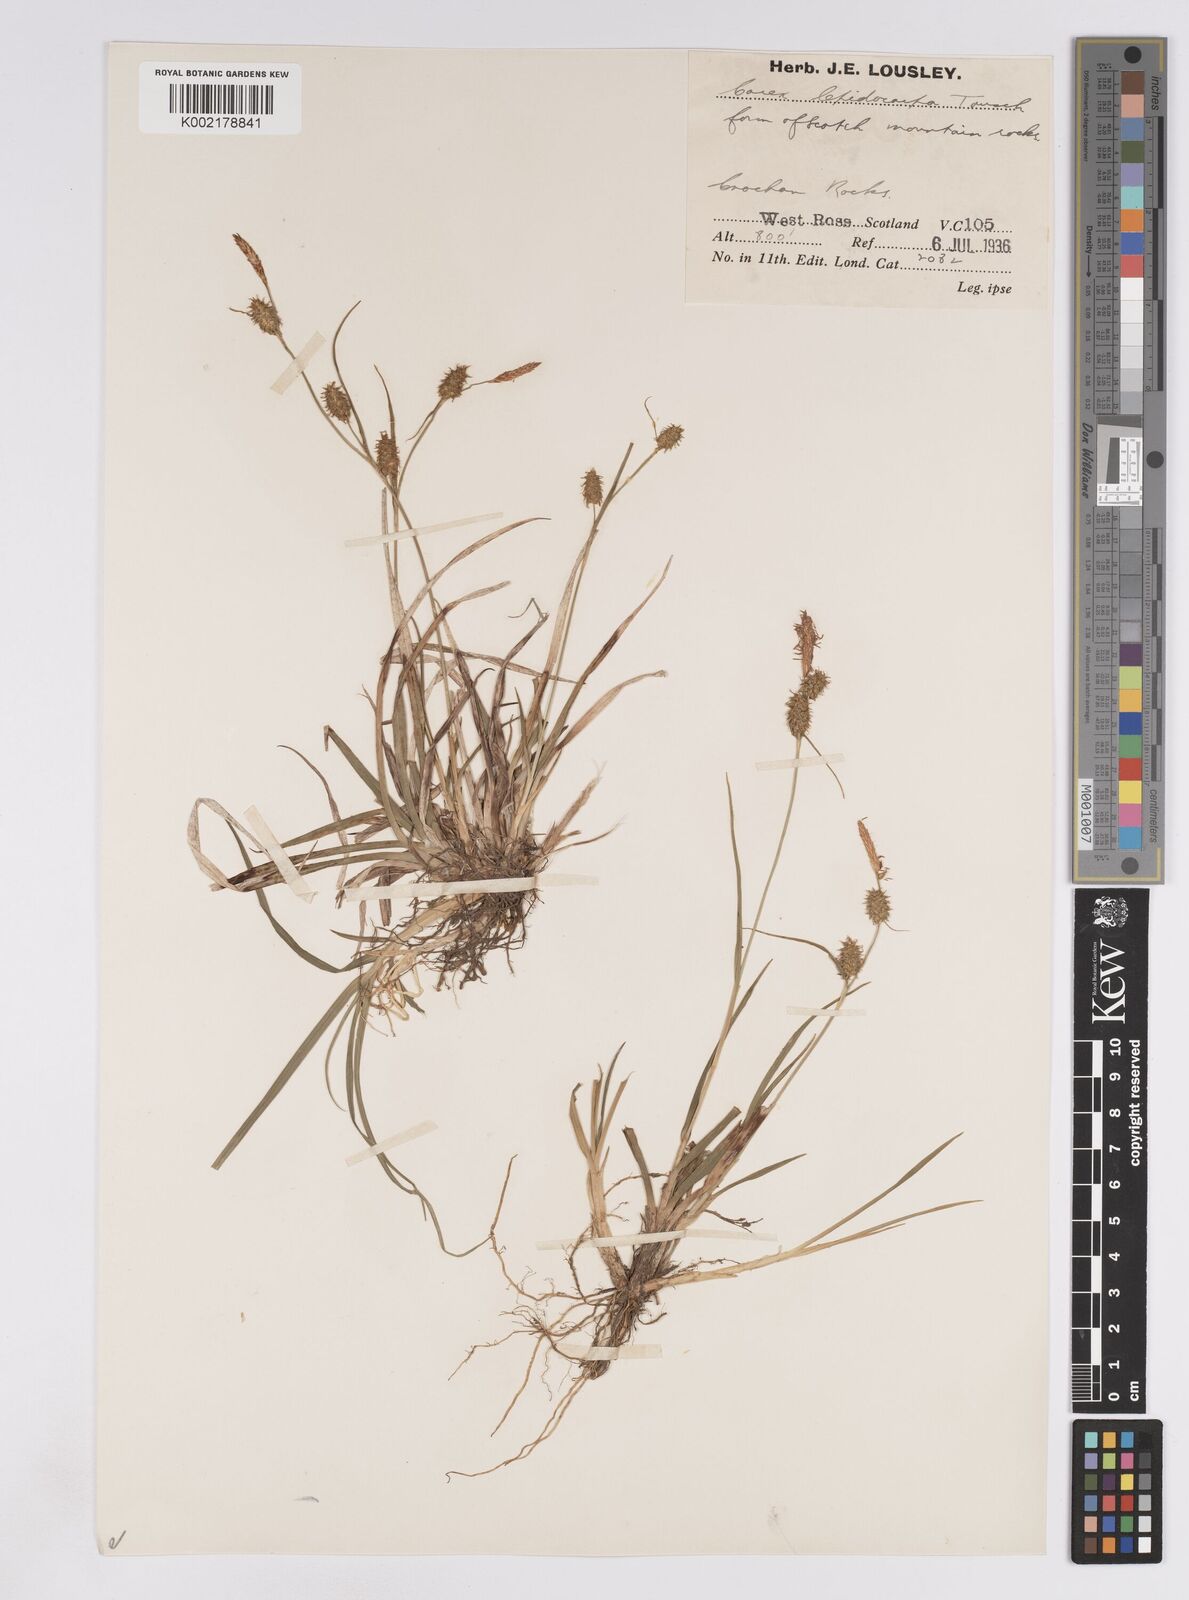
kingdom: Plantae
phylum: Tracheophyta
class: Liliopsida
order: Poales
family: Cyperaceae
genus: Carex
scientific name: Carex lepidocarpa
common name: Long-stalked yellow-sedge
